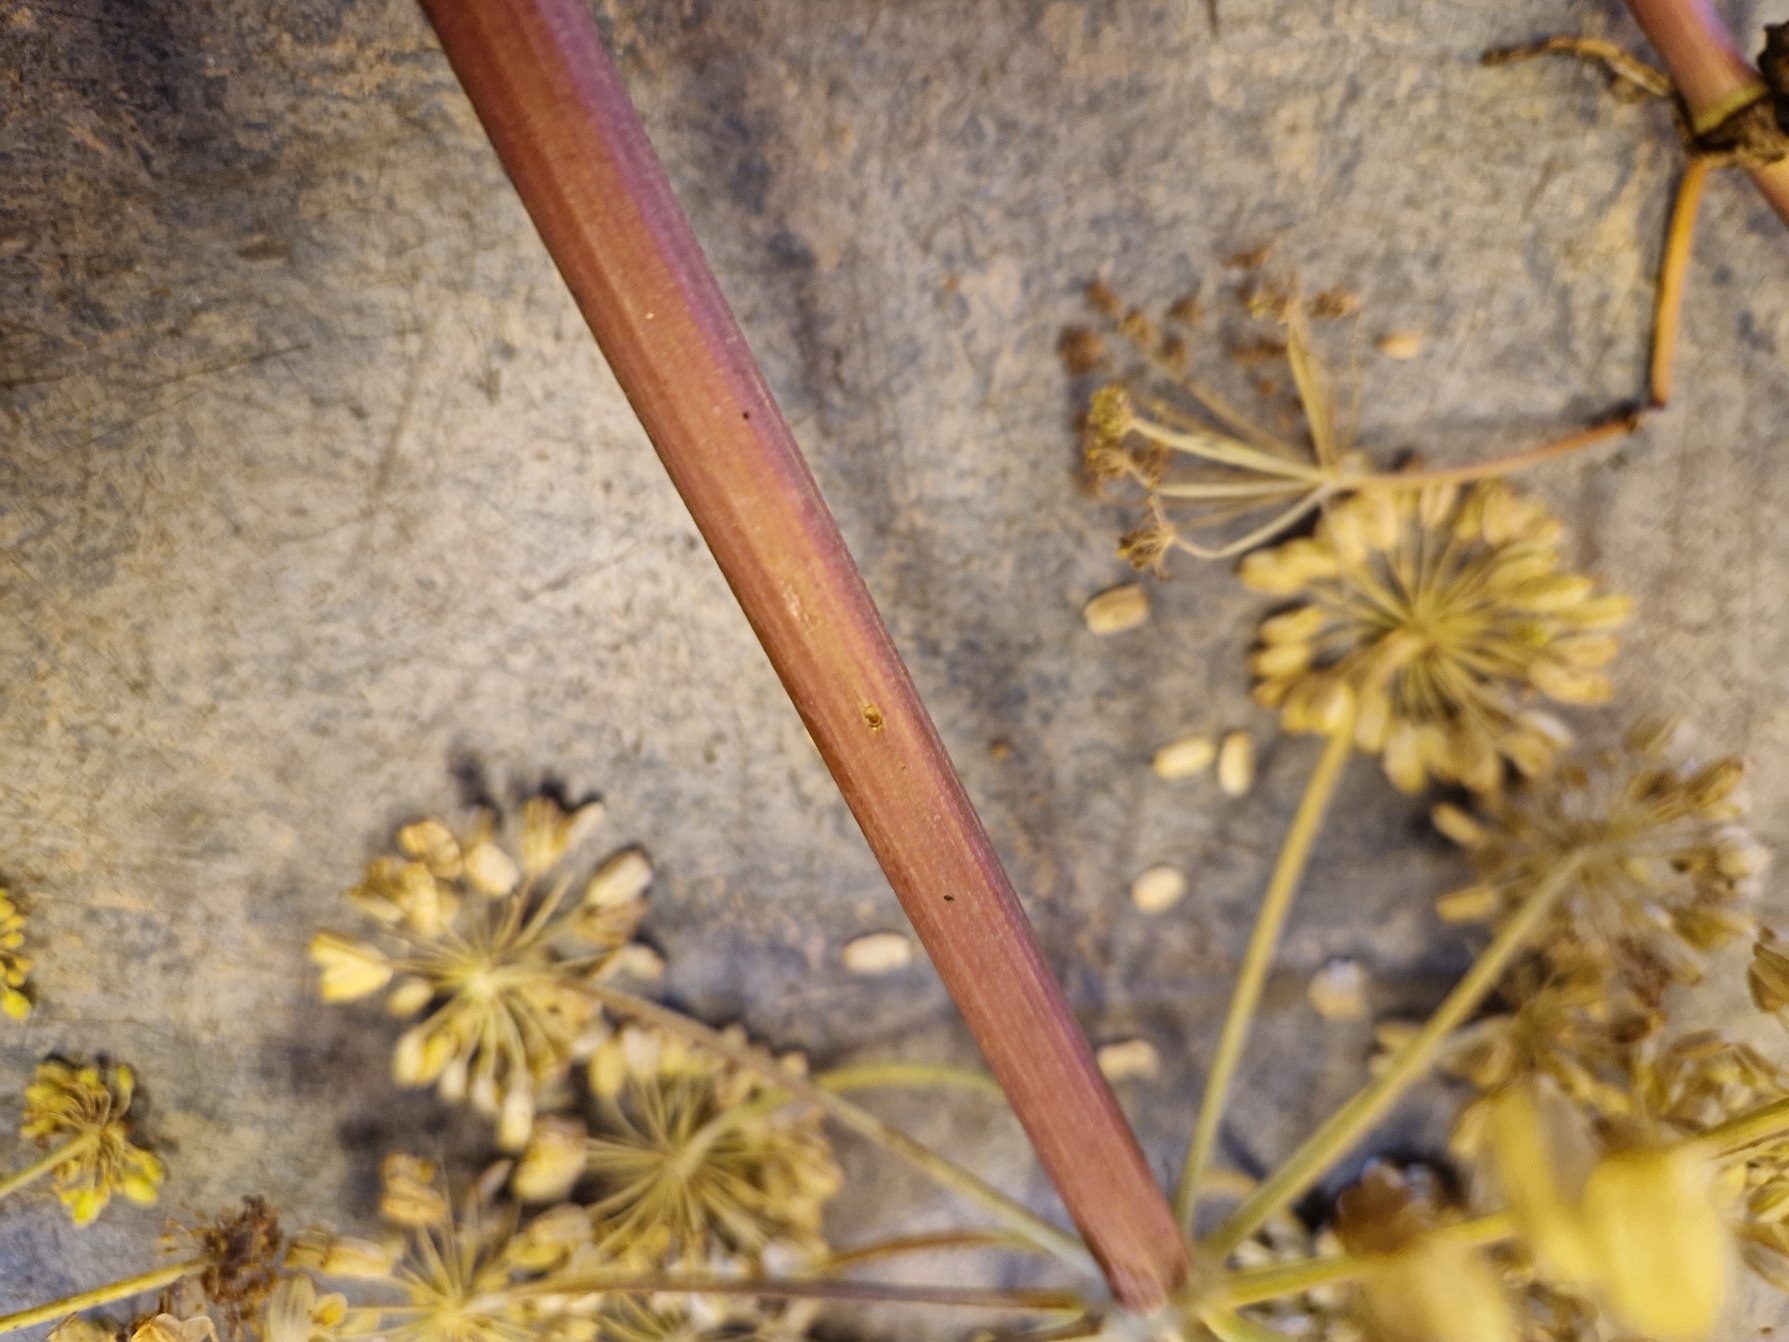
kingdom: Plantae
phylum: Tracheophyta
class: Magnoliopsida
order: Apiales
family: Apiaceae
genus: Angelica
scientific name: Angelica archangelica
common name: Kvan
